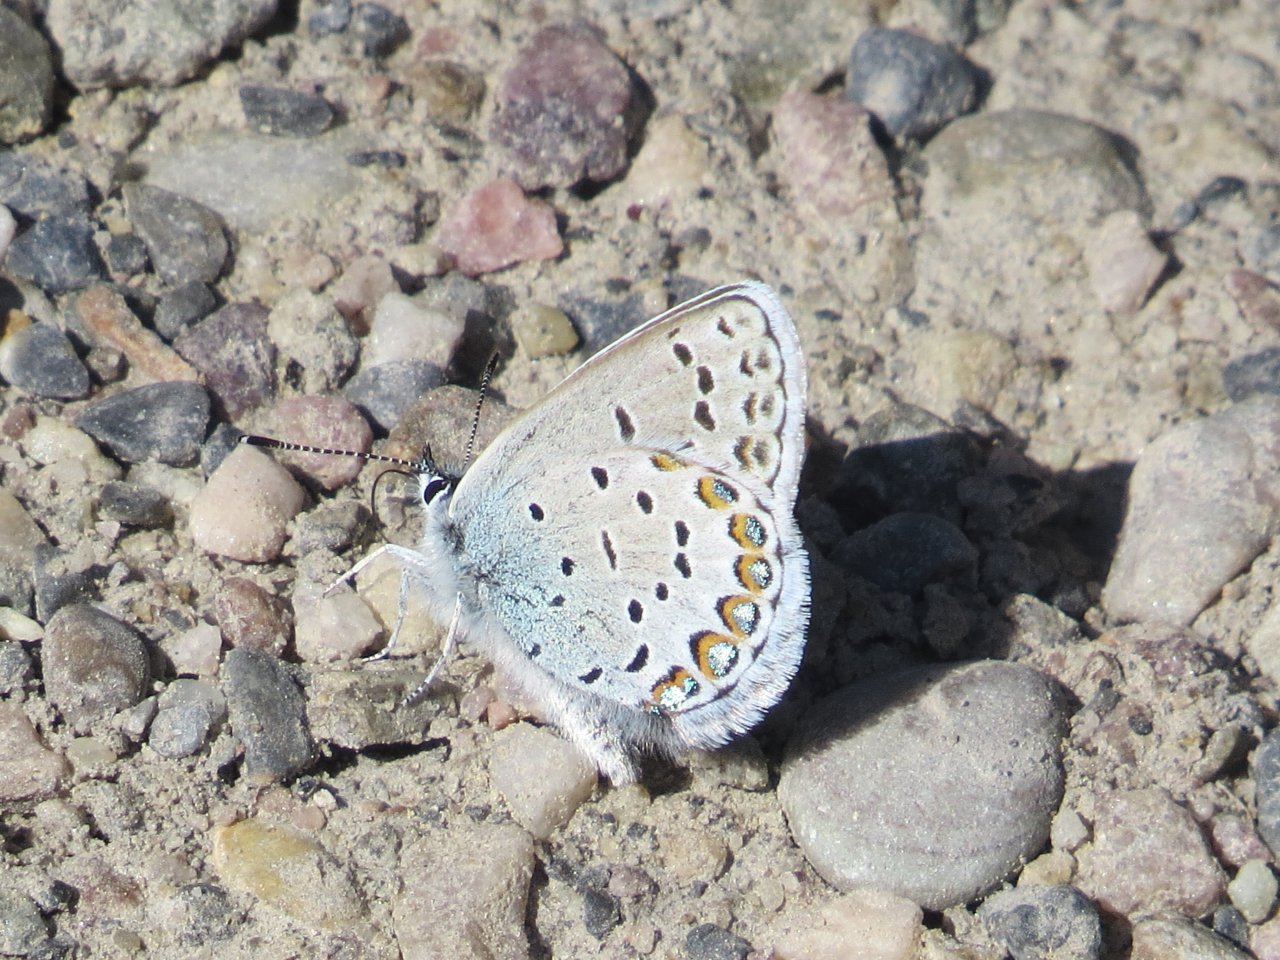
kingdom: Animalia
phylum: Arthropoda
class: Insecta
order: Lepidoptera
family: Lycaenidae
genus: Lycaeides
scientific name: Lycaeides idas
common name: Northern Blue
